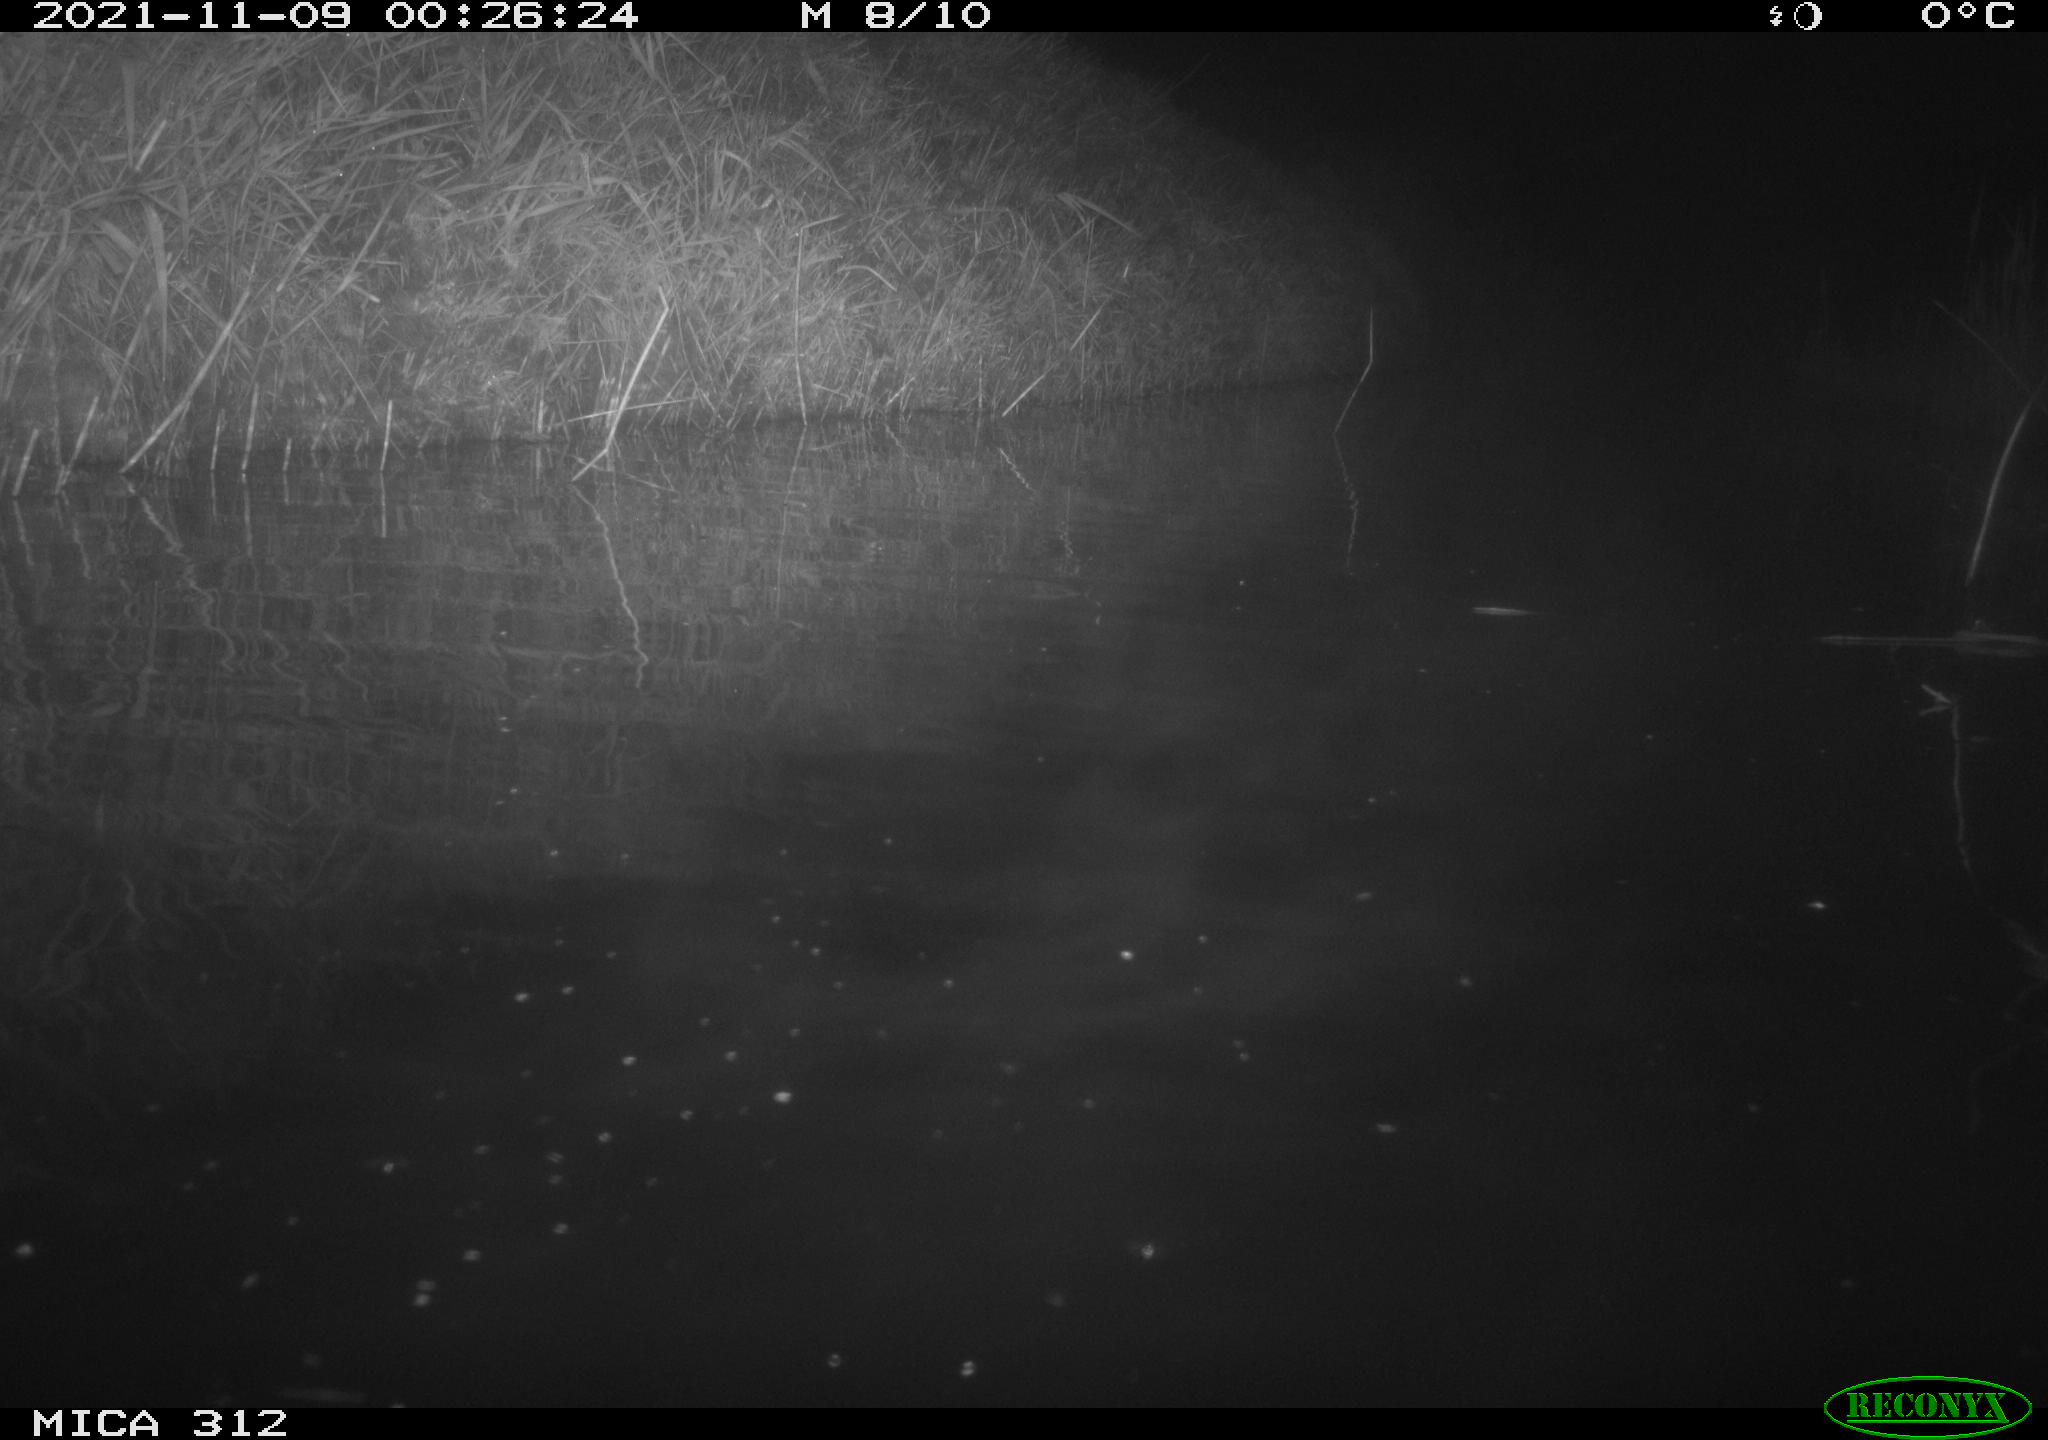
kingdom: Animalia
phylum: Chordata
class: Mammalia
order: Rodentia
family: Muridae
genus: Rattus
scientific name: Rattus norvegicus
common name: Brown rat
